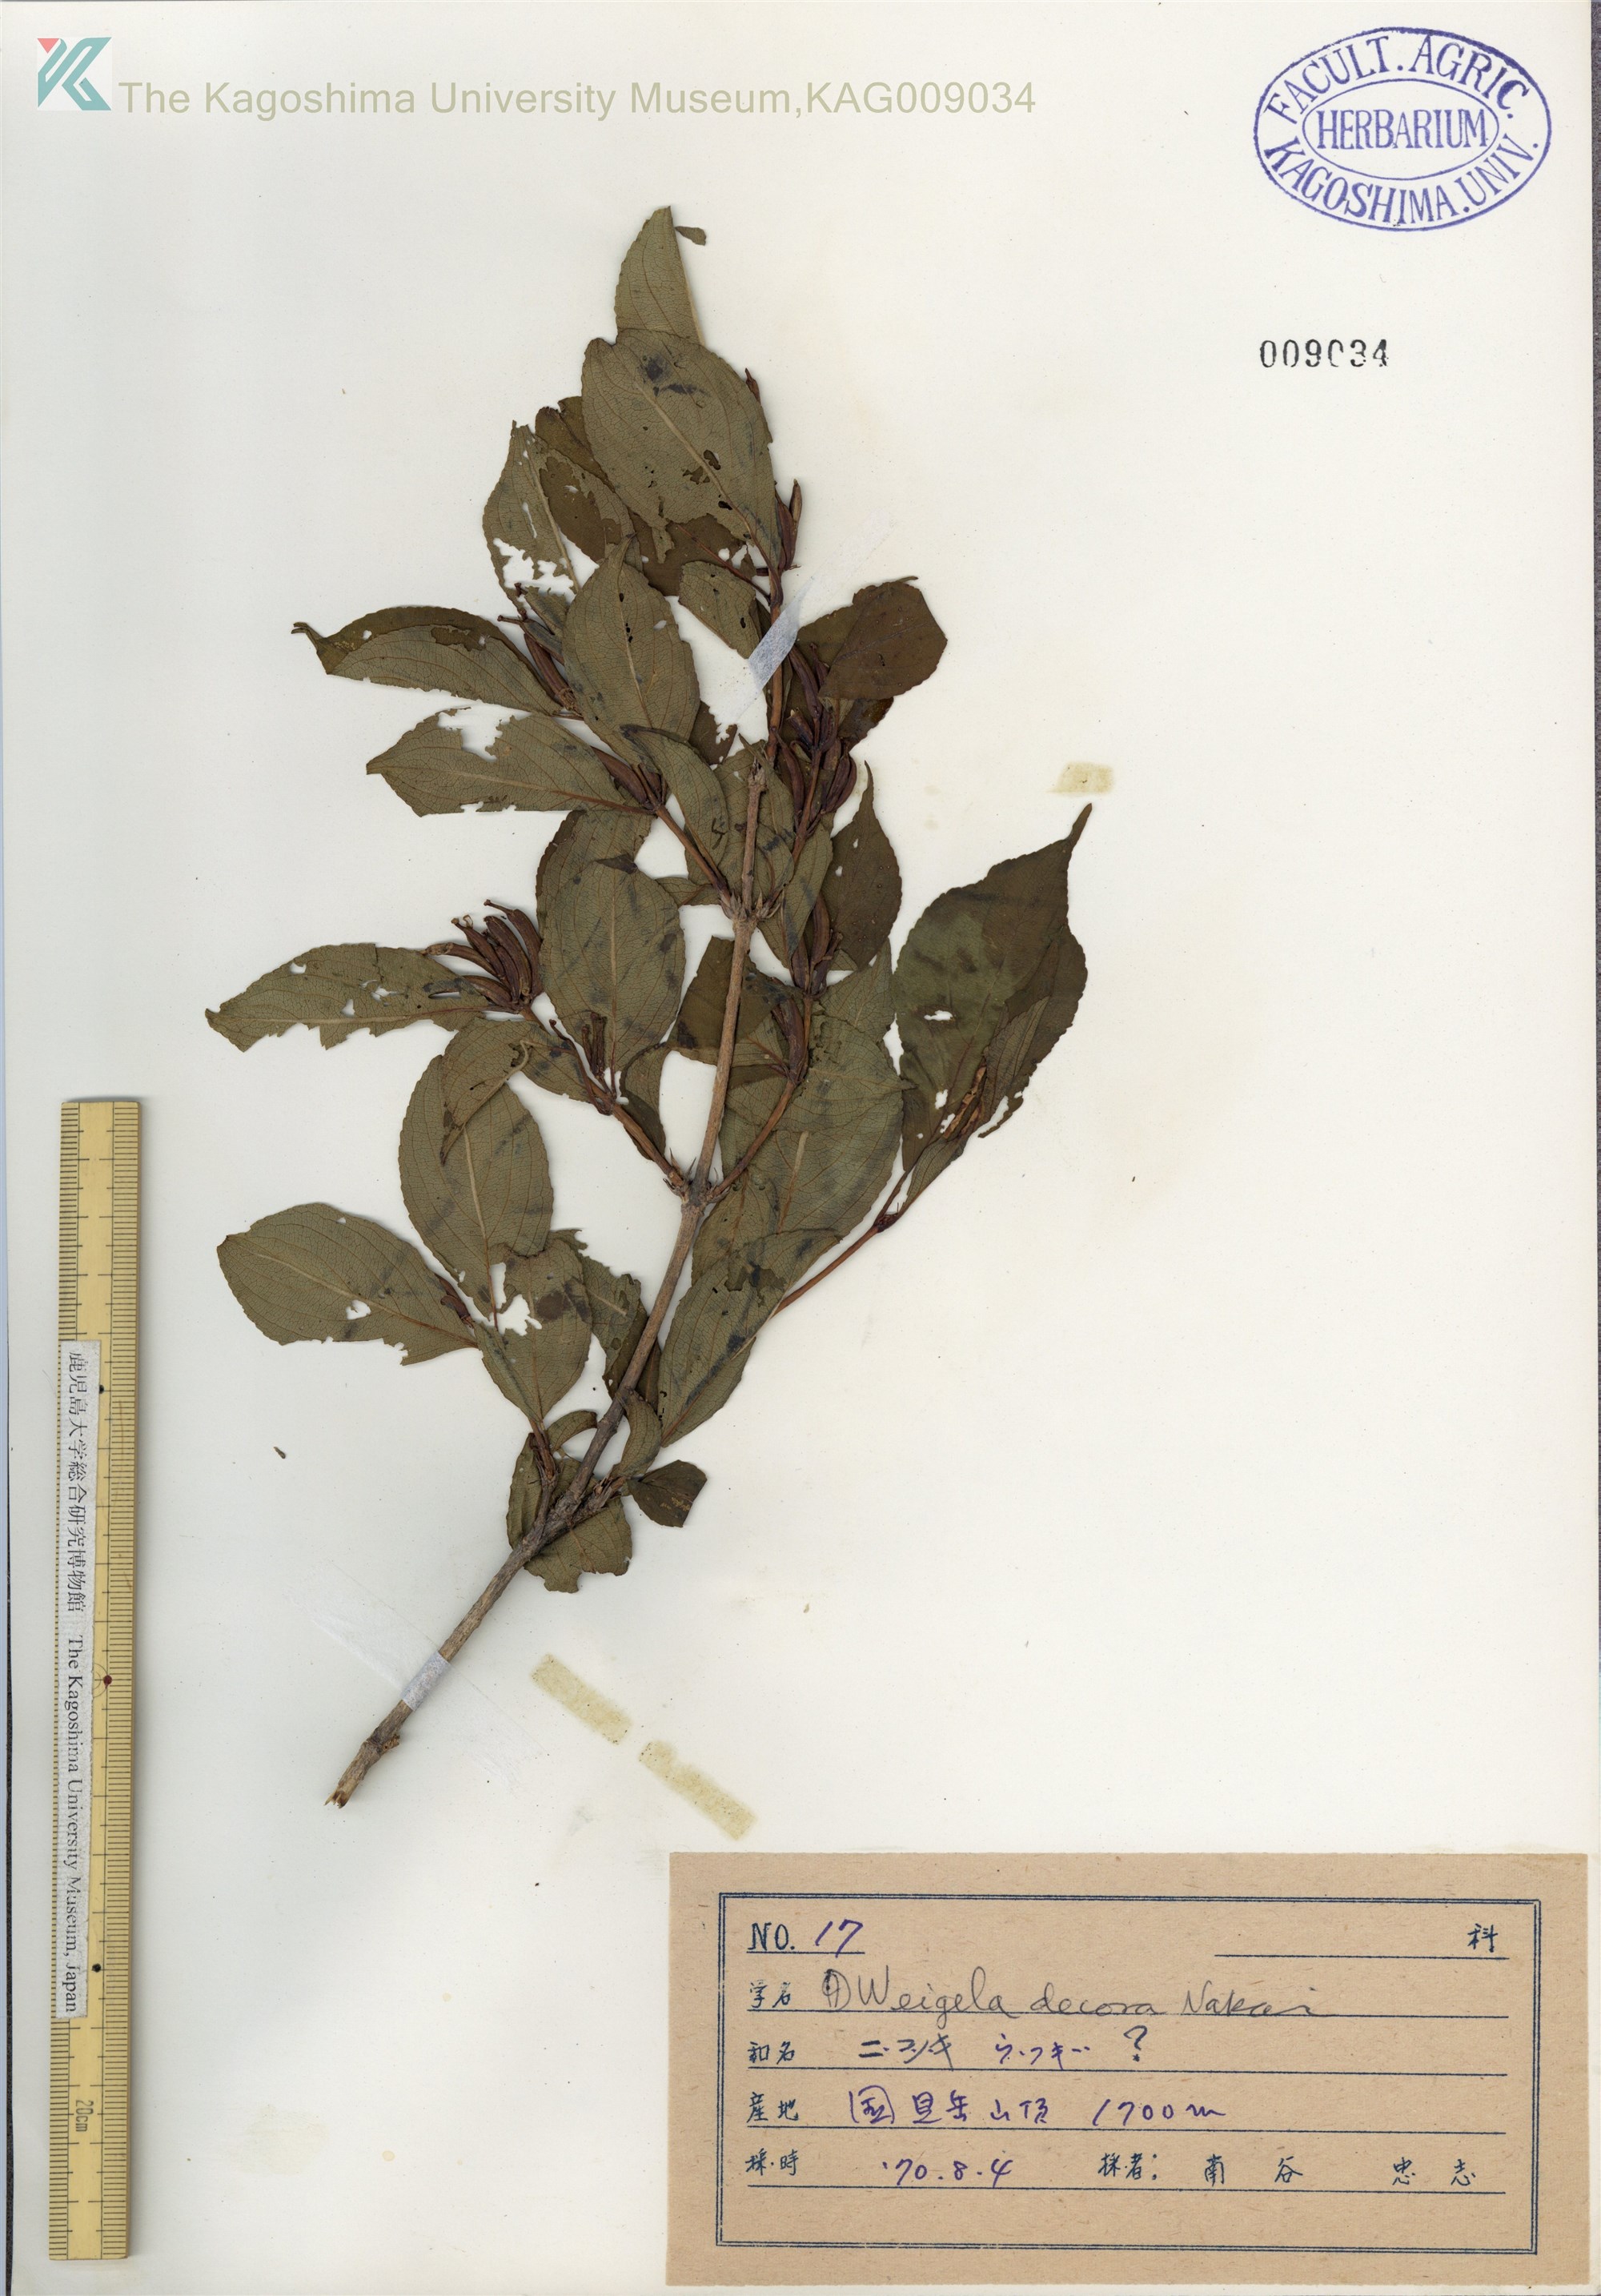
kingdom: Plantae
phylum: Tracheophyta
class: Magnoliopsida
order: Dipsacales
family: Caprifoliaceae
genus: Weigela
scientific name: Weigela decora
